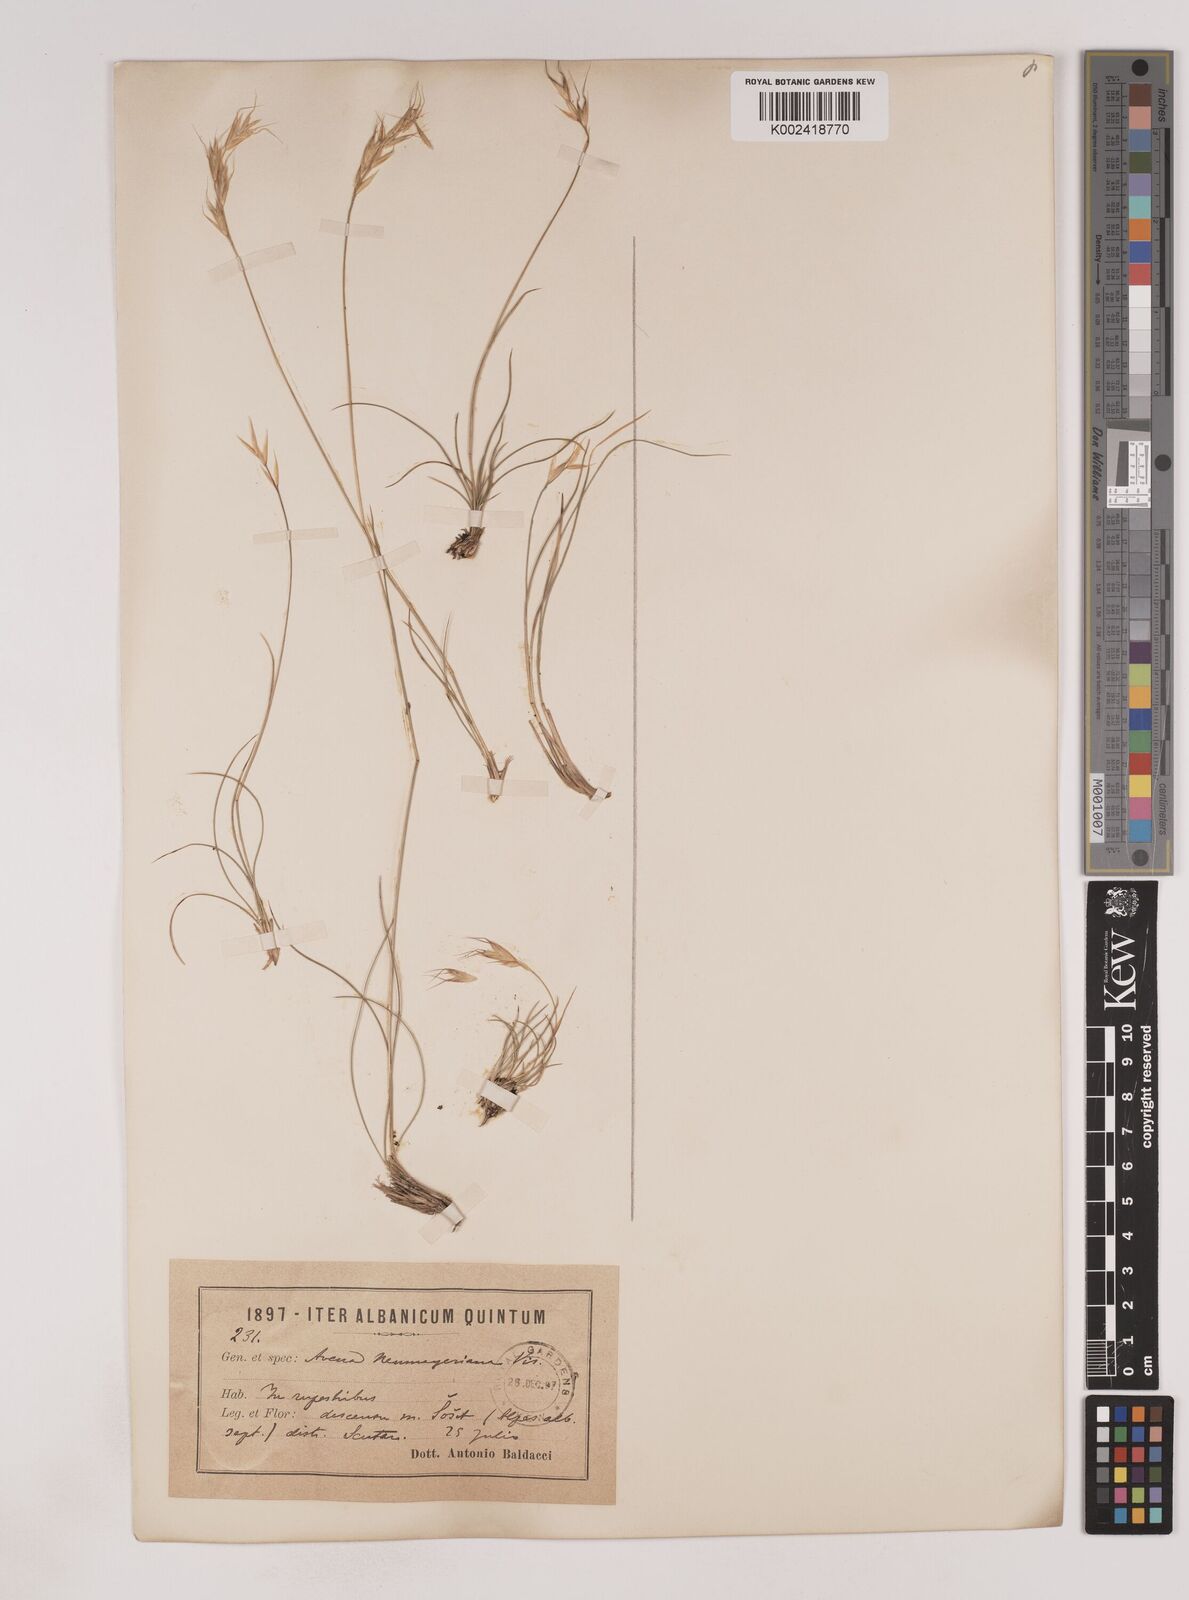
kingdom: Plantae
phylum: Tracheophyta
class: Liliopsida
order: Poales
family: Poaceae
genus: Danthoniastrum
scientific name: Danthoniastrum compactum
